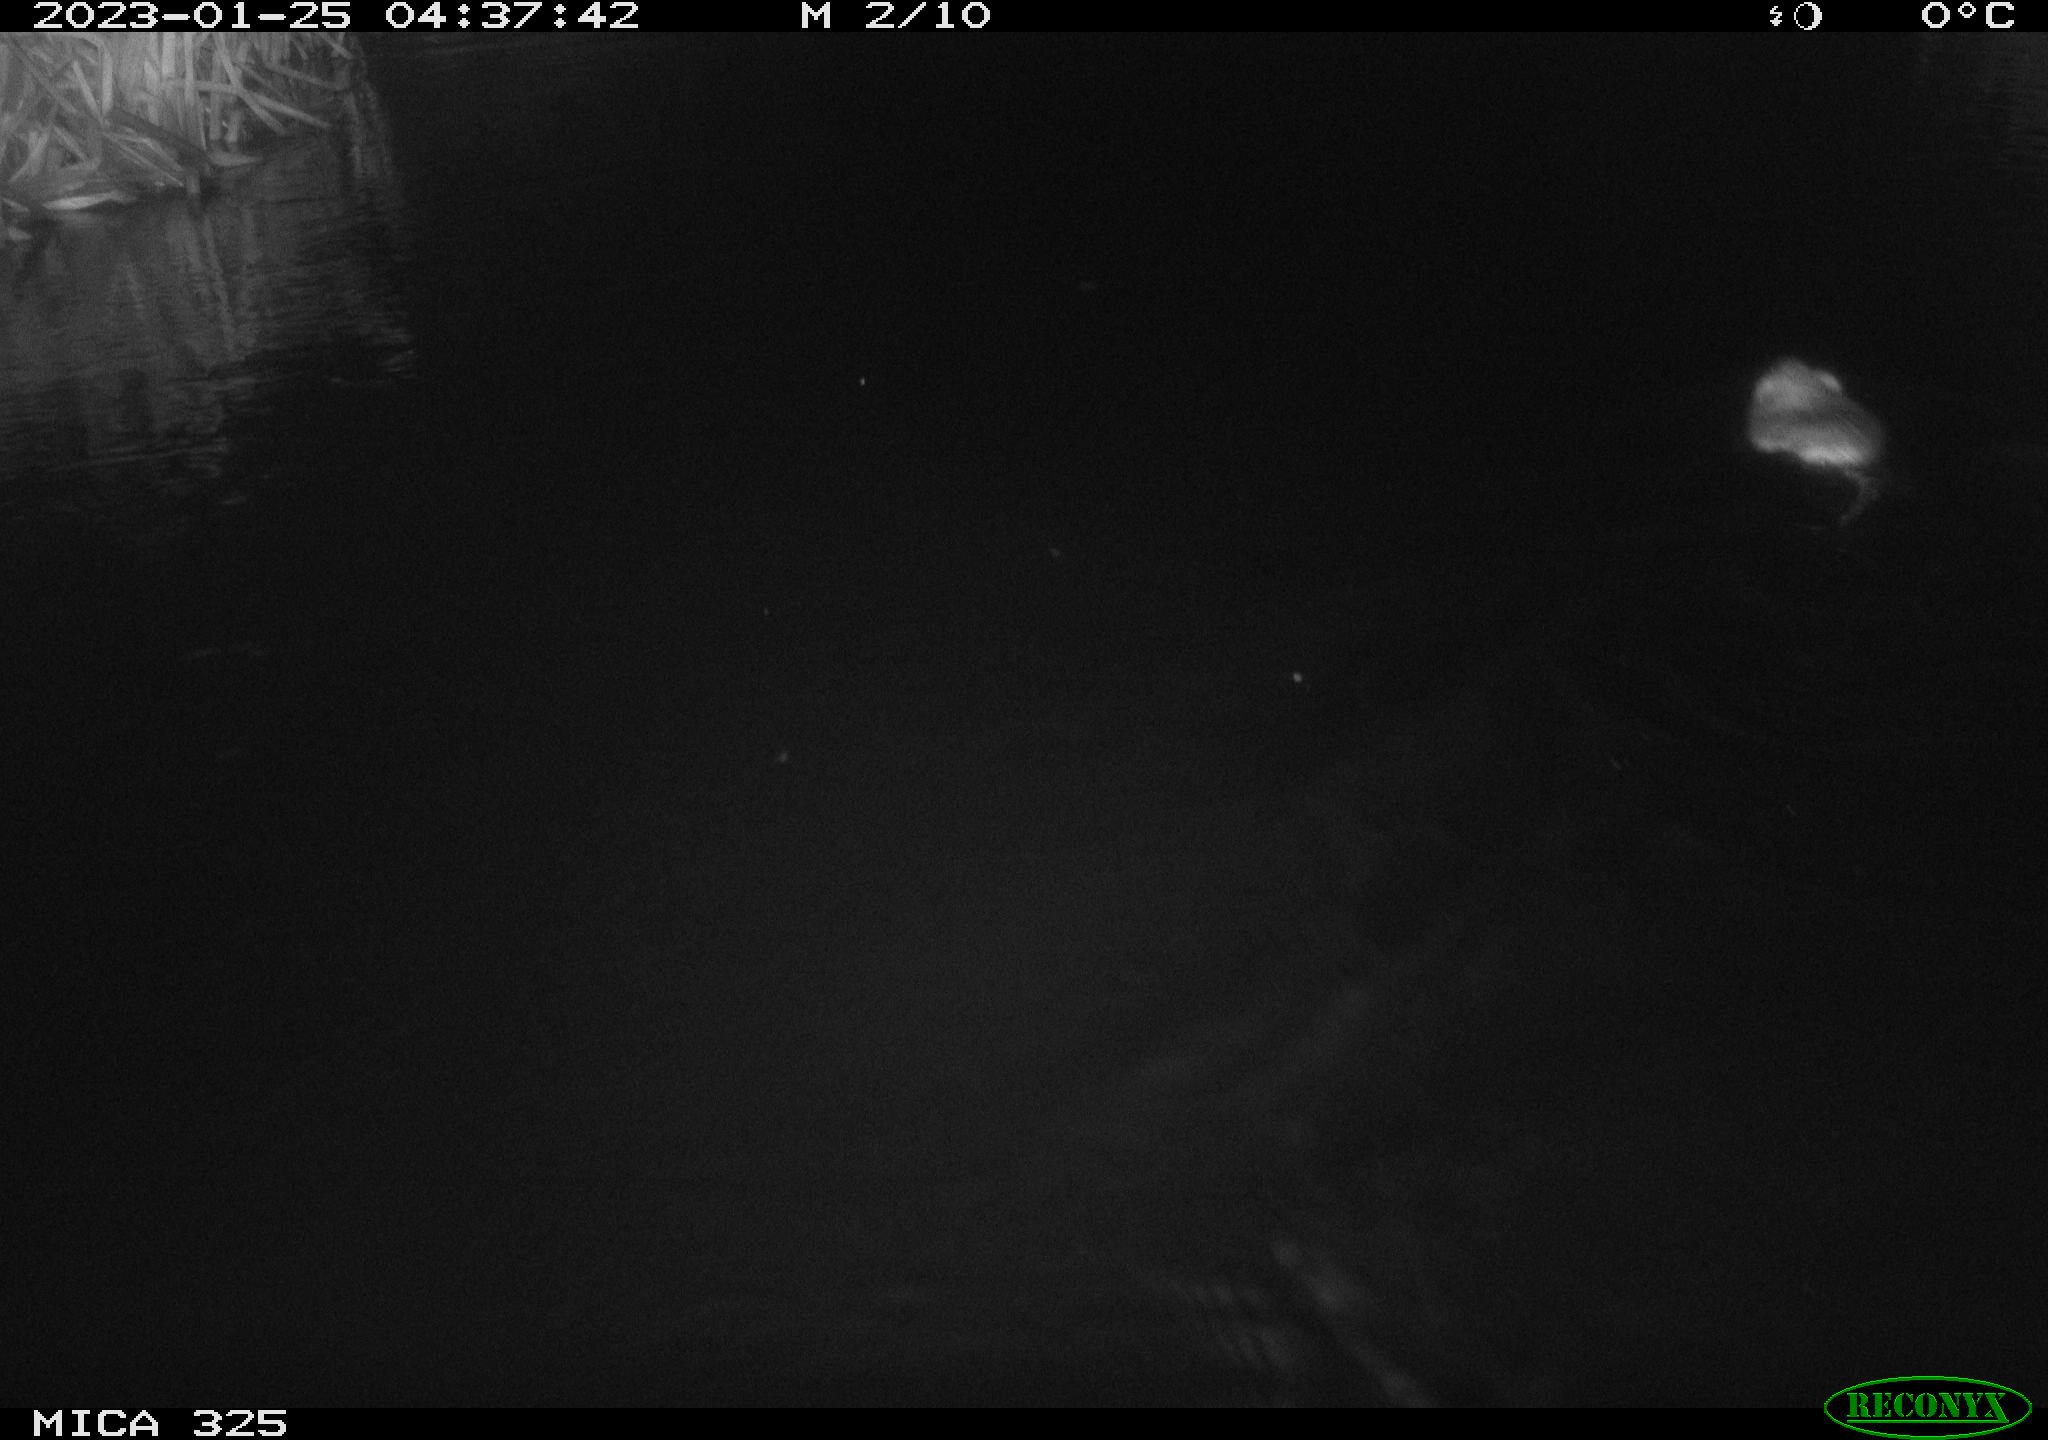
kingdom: Animalia
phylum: Chordata
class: Mammalia
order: Rodentia
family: Cricetidae
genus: Ondatra
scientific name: Ondatra zibethicus
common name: Muskrat
